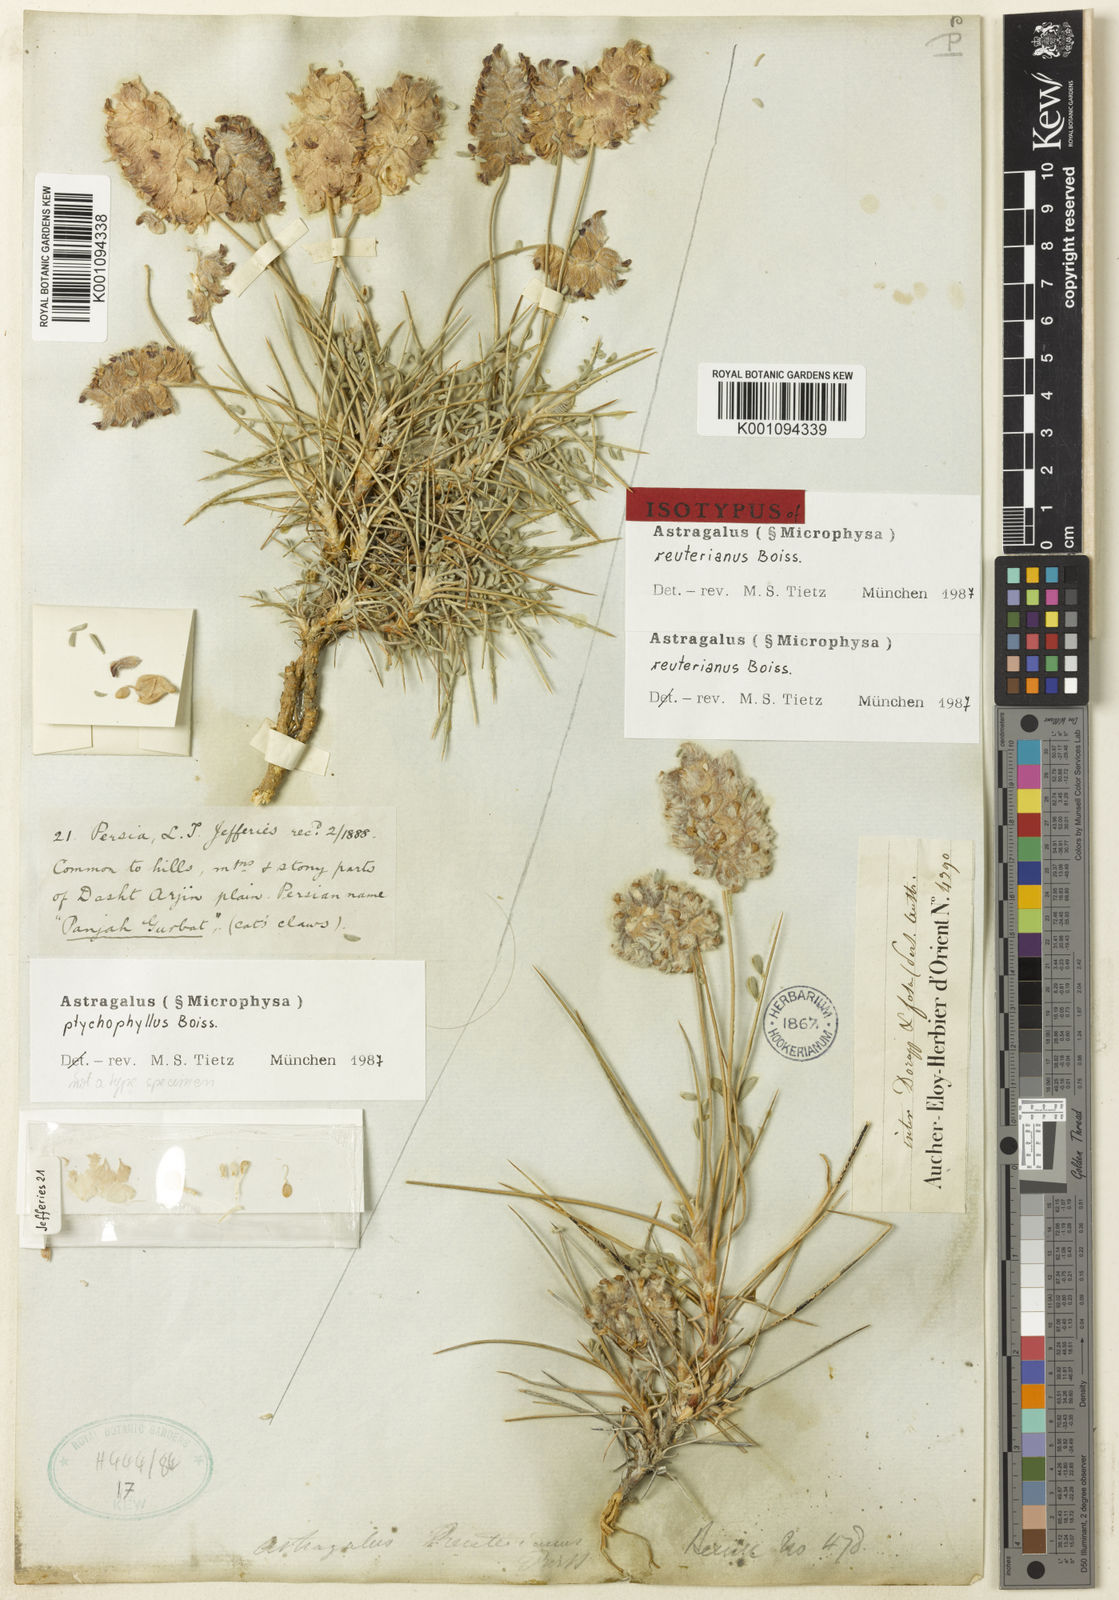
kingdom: Plantae
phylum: Tracheophyta
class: Magnoliopsida
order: Fabales
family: Fabaceae
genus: Astragalus
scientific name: Astragalus
